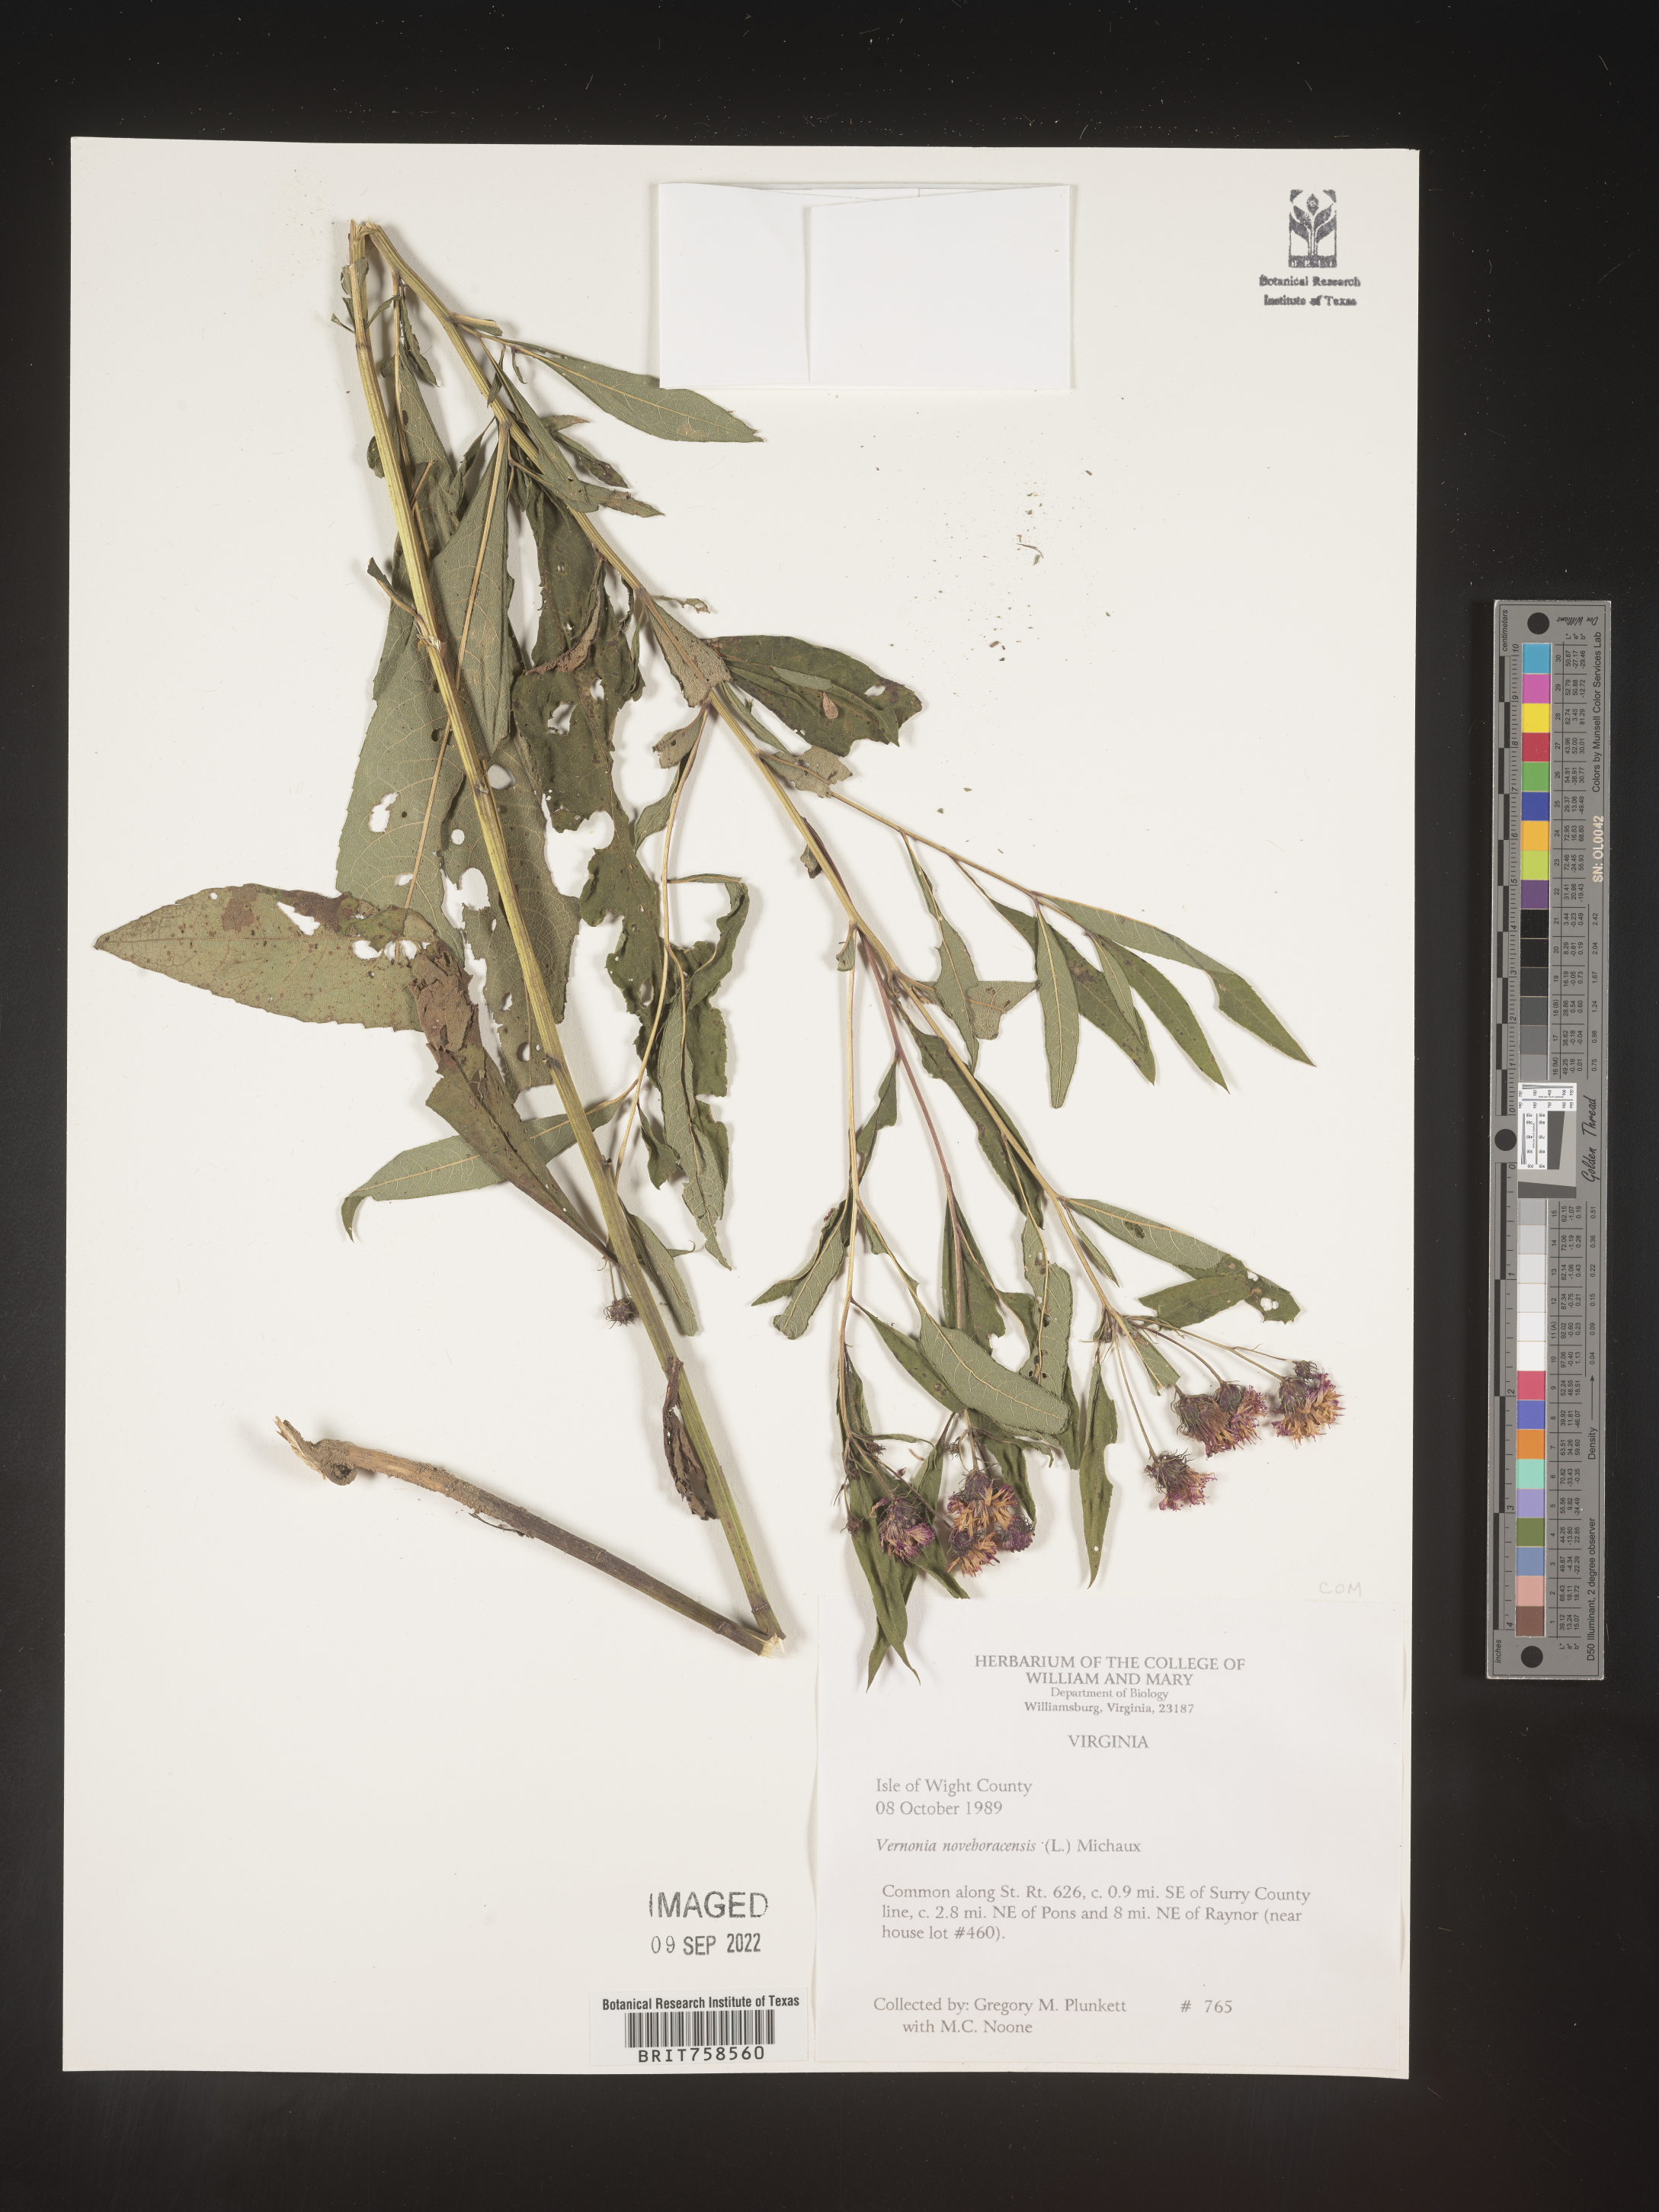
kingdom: Plantae
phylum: Tracheophyta
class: Magnoliopsida
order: Asterales
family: Asteraceae
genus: Vernonia
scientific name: Vernonia noveboracensis
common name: New york ironweed
